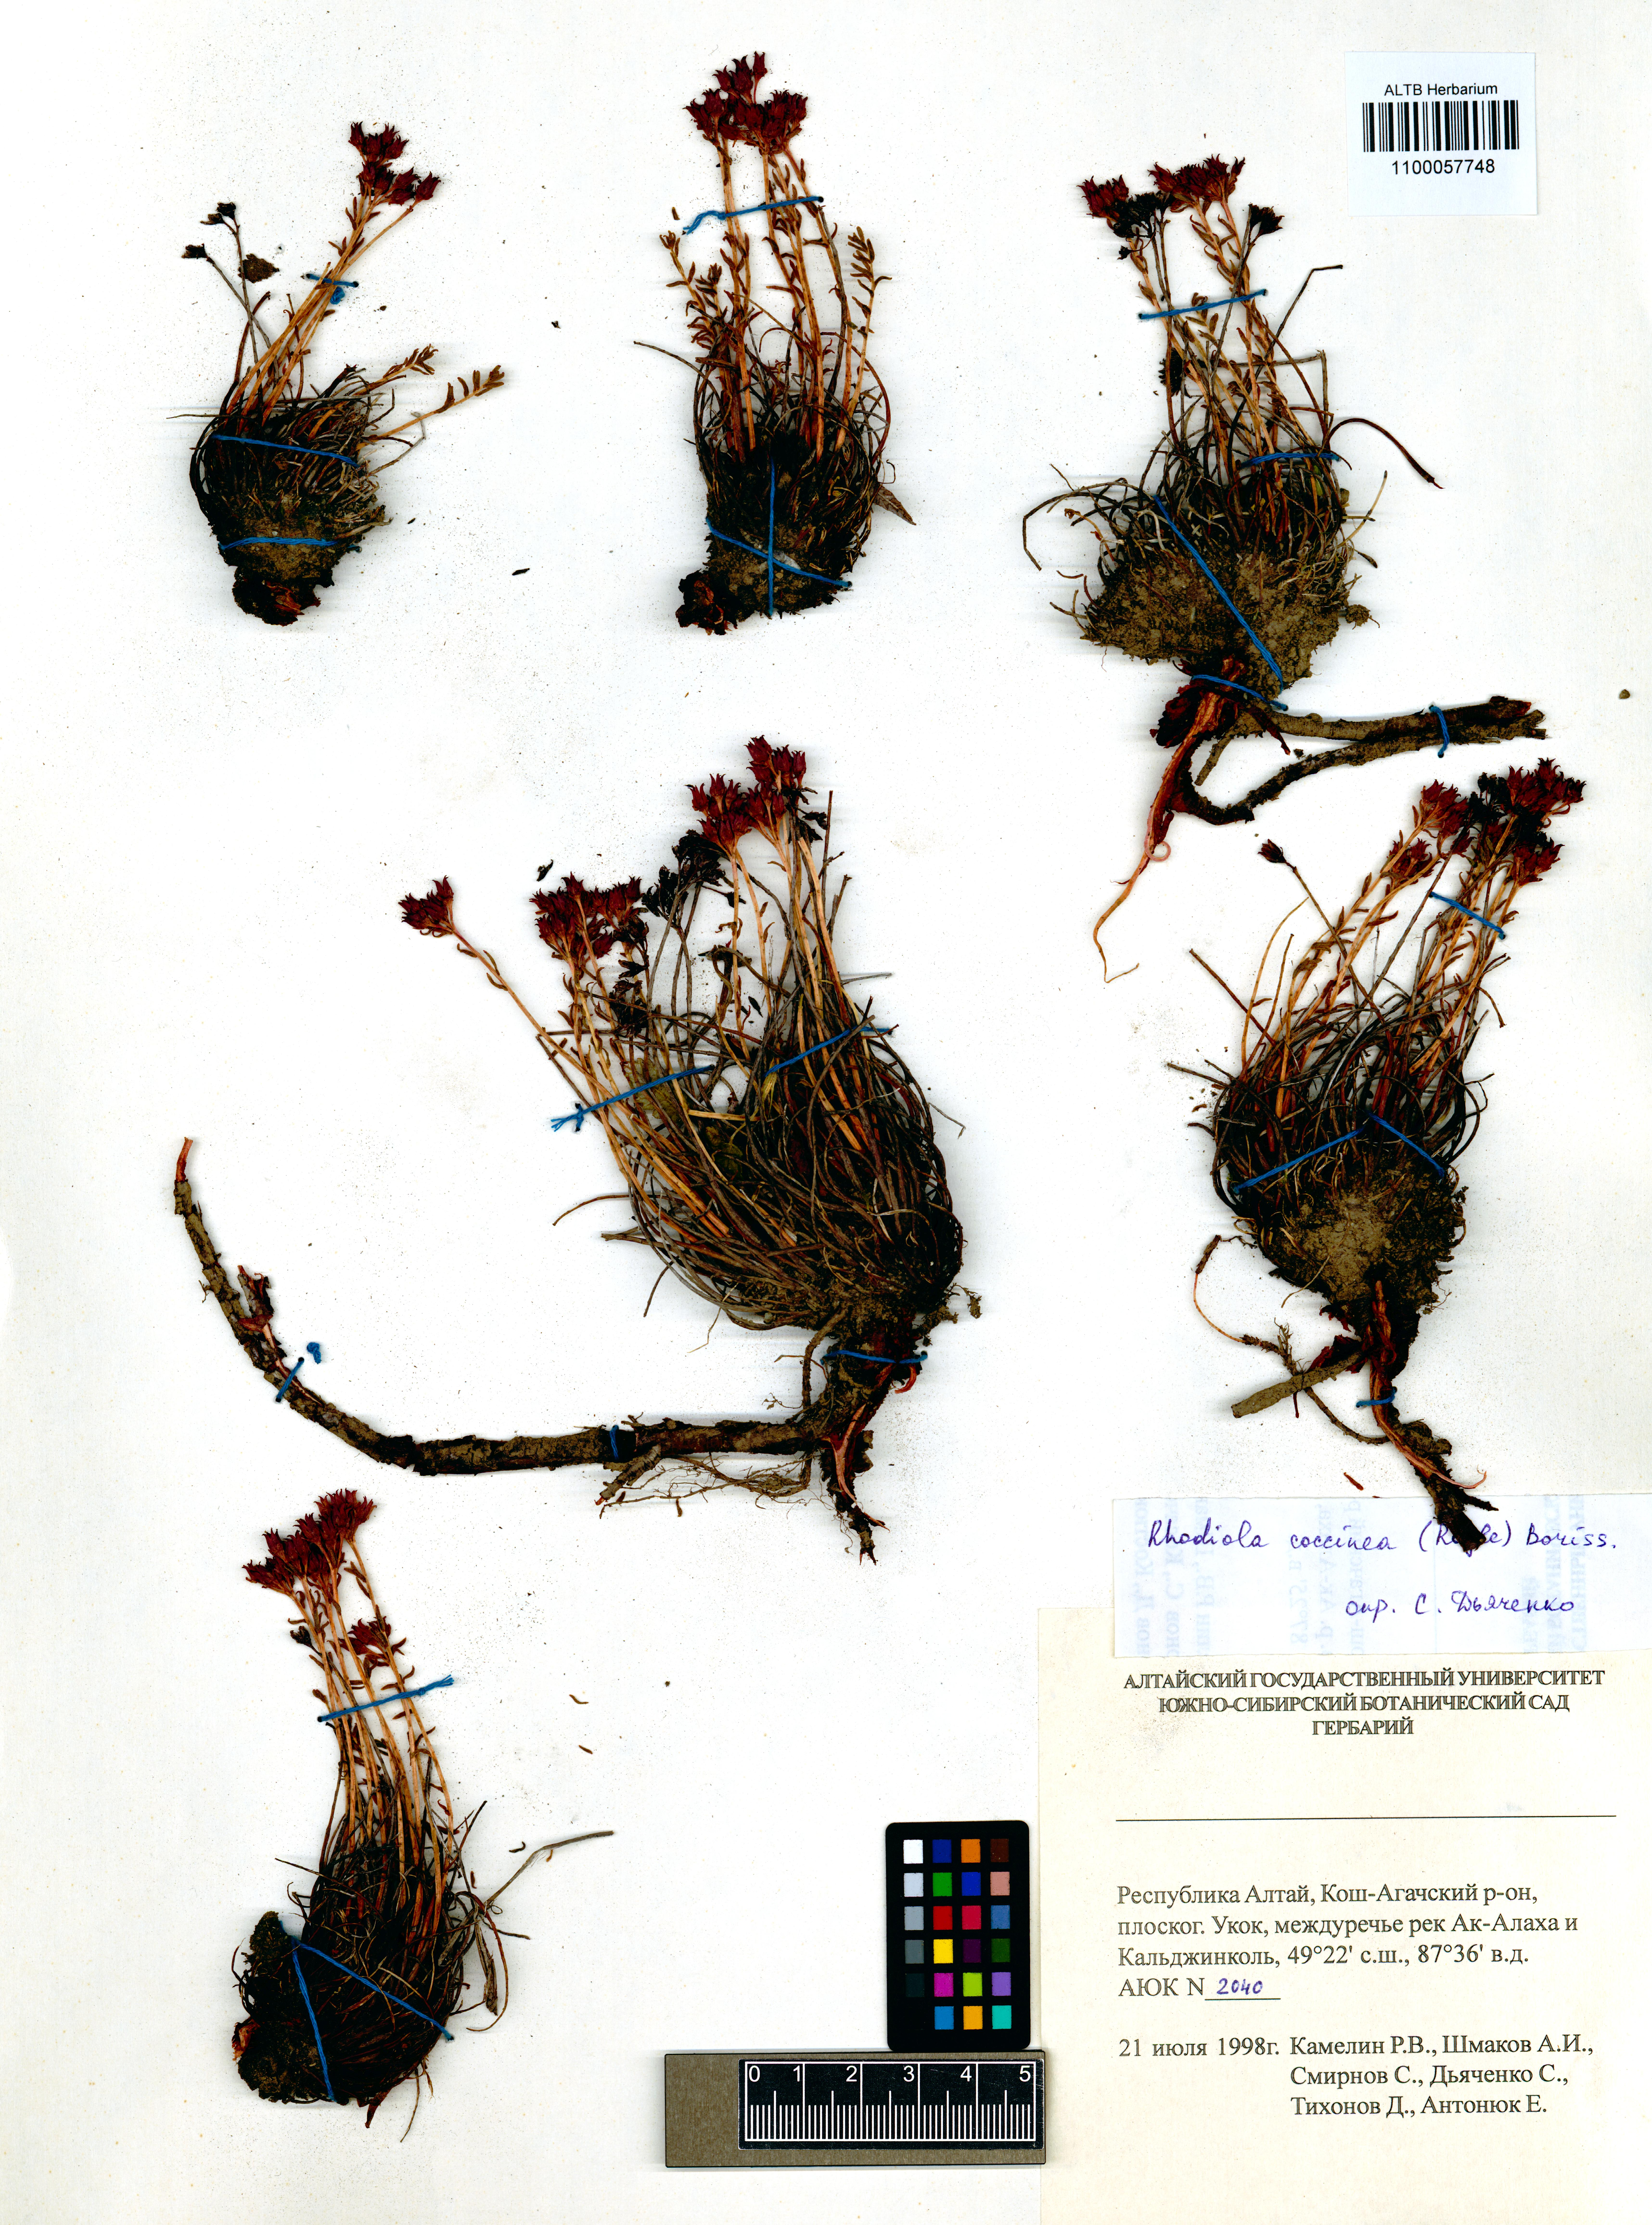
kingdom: Plantae
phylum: Tracheophyta
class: Magnoliopsida
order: Saxifragales
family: Crassulaceae
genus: Rhodiola
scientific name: Rhodiola coccinea
